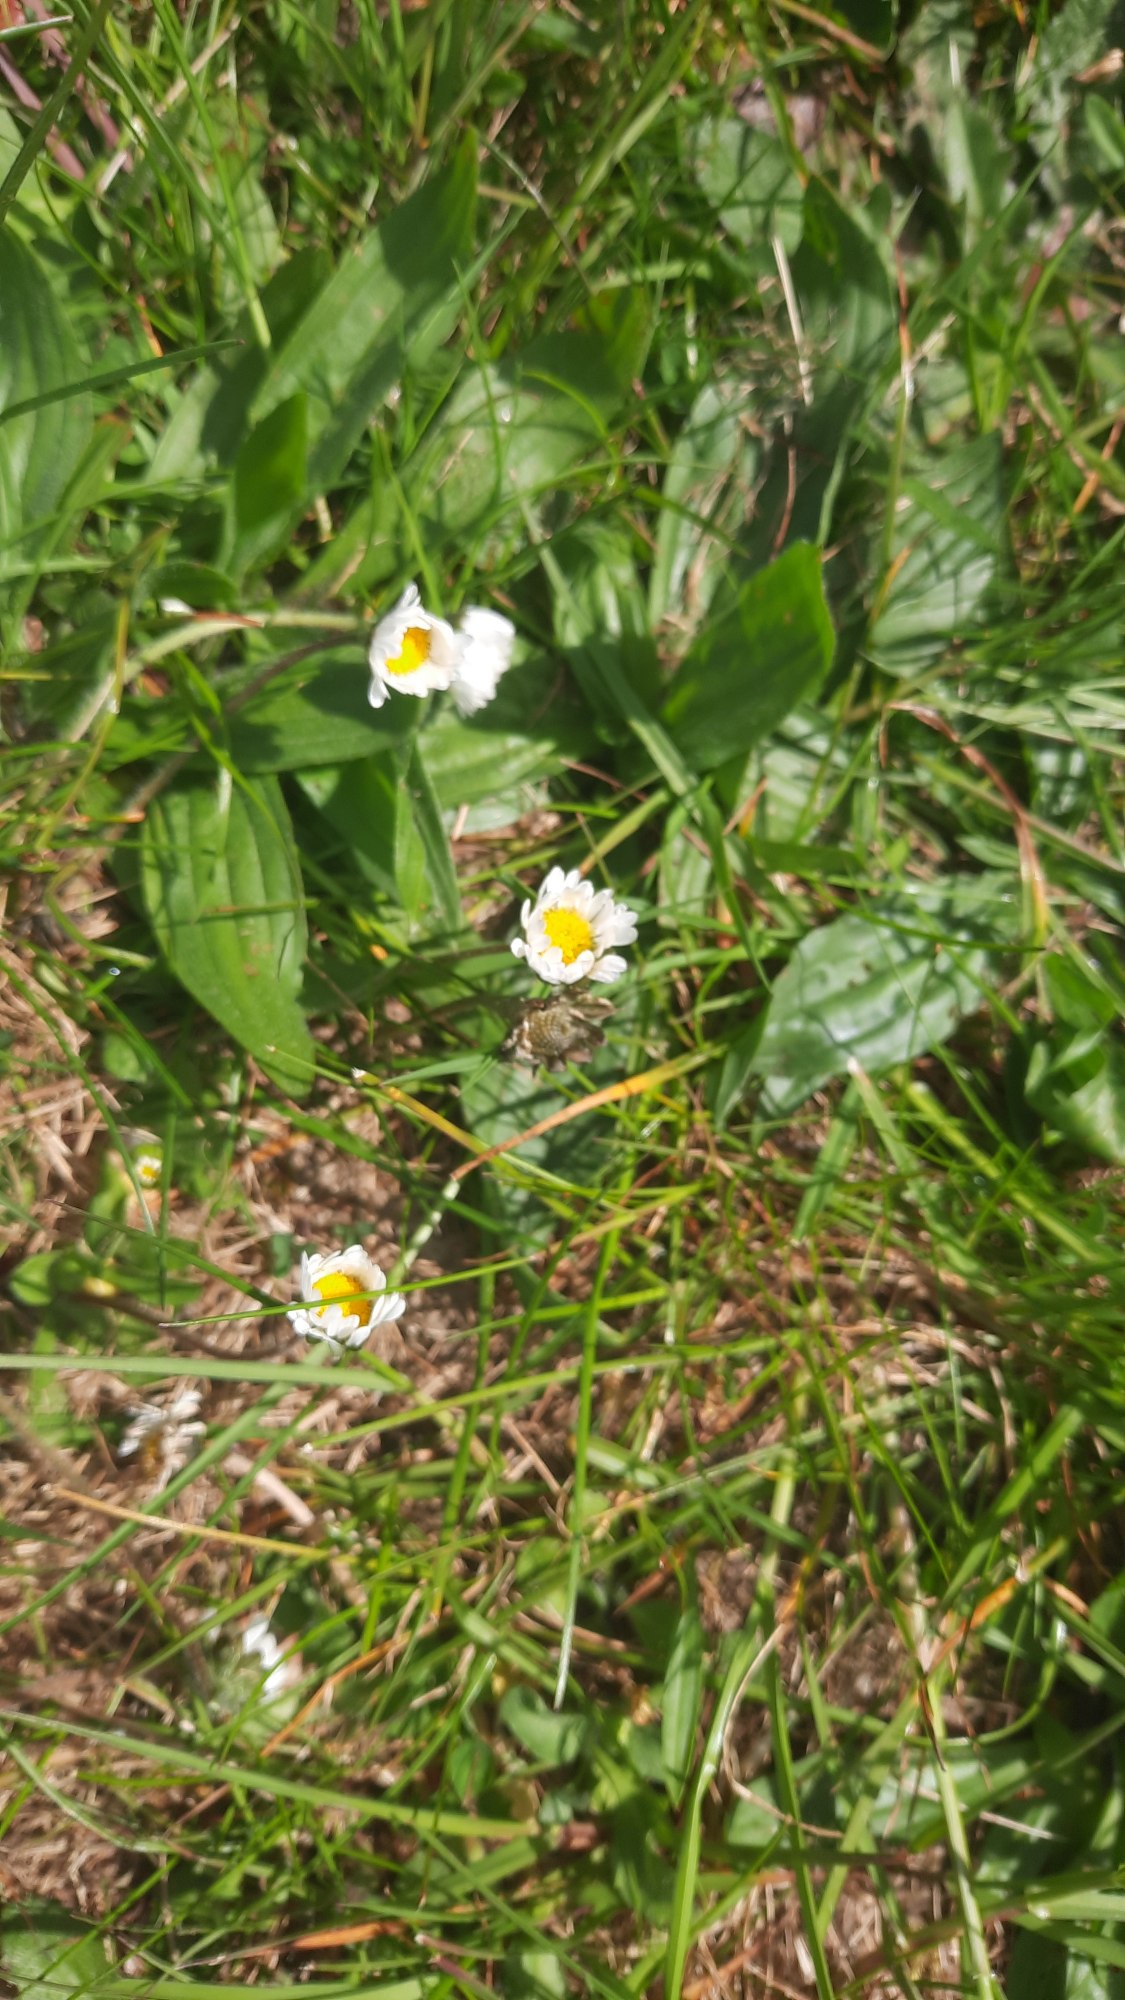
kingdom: Plantae
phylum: Tracheophyta
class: Magnoliopsida
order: Asterales
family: Asteraceae
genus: Bellis
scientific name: Bellis perennis
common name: Tusindfryd
